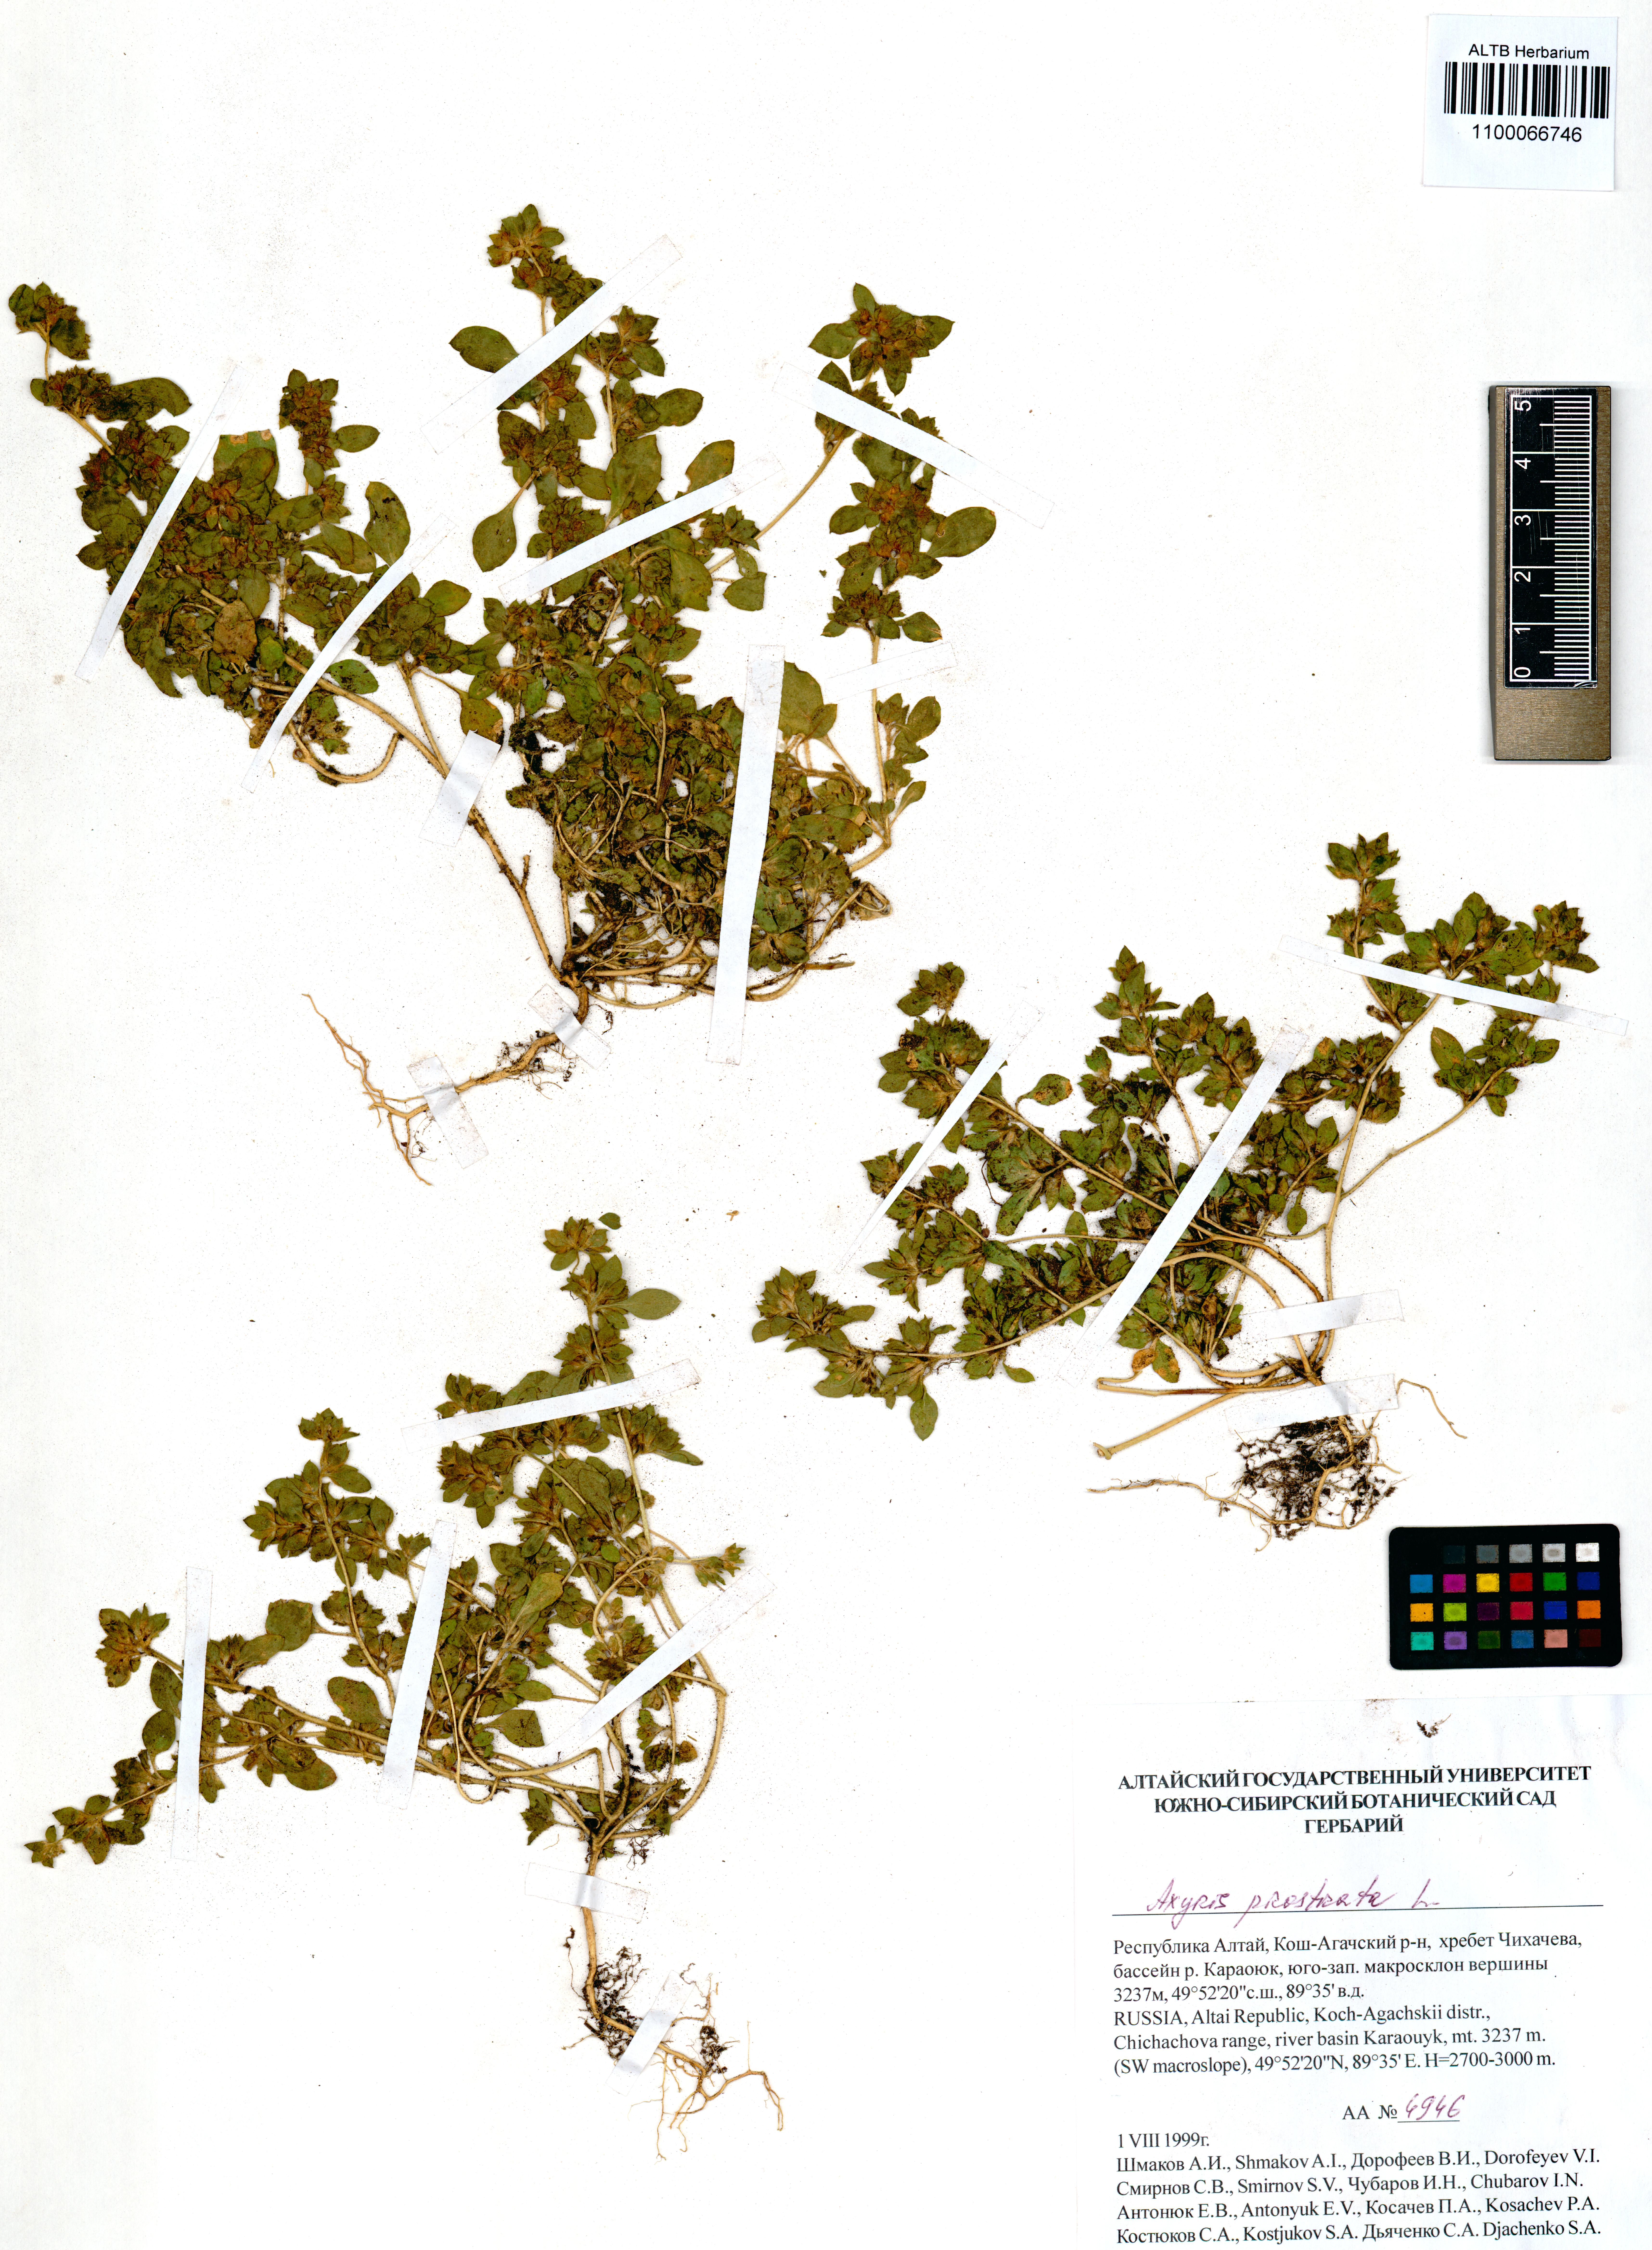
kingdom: Plantae
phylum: Tracheophyta
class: Magnoliopsida
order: Caryophyllales
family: Amaranthaceae
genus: Axyris
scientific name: Axyris prostrata
